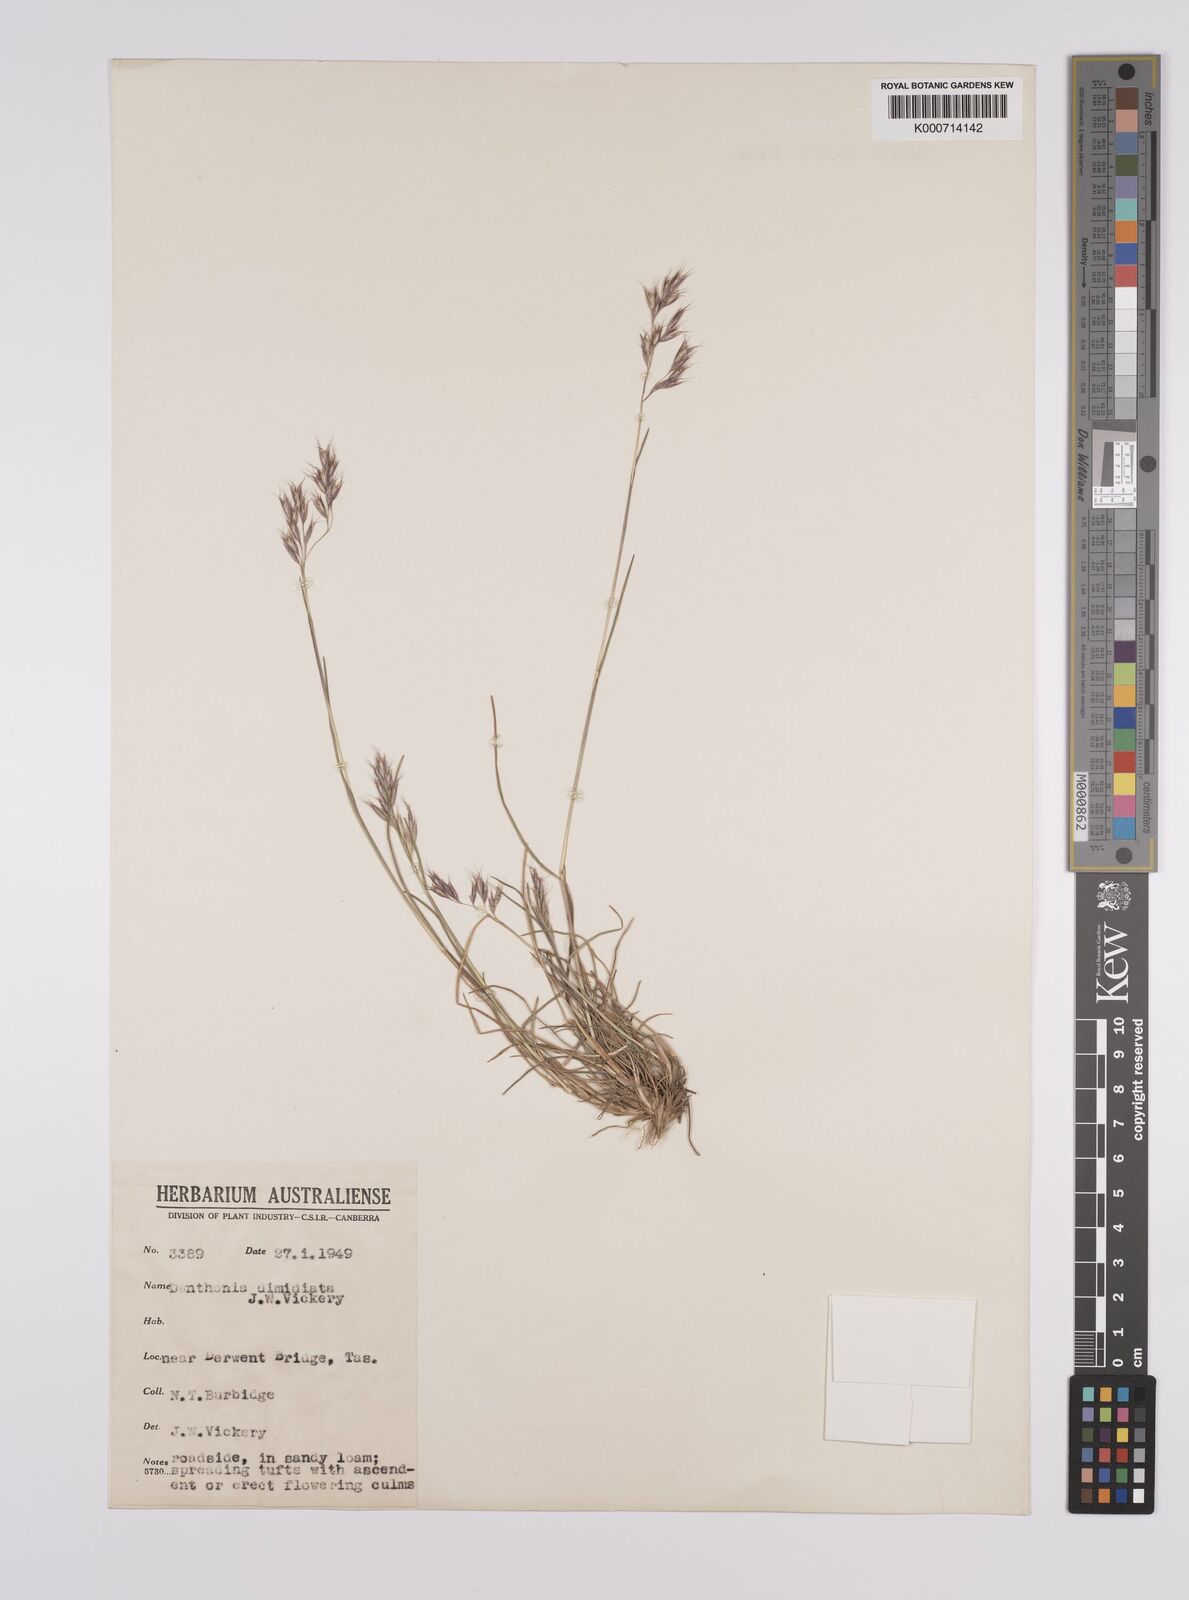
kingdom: Plantae
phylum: Tracheophyta
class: Liliopsida
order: Poales
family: Poaceae
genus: Rytidosperma
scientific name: Rytidosperma dimidiatum
